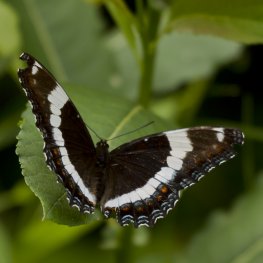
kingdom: Animalia
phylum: Arthropoda
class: Insecta
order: Lepidoptera
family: Nymphalidae
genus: Limenitis
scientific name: Limenitis arthemis
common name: Red-spotted Admiral
